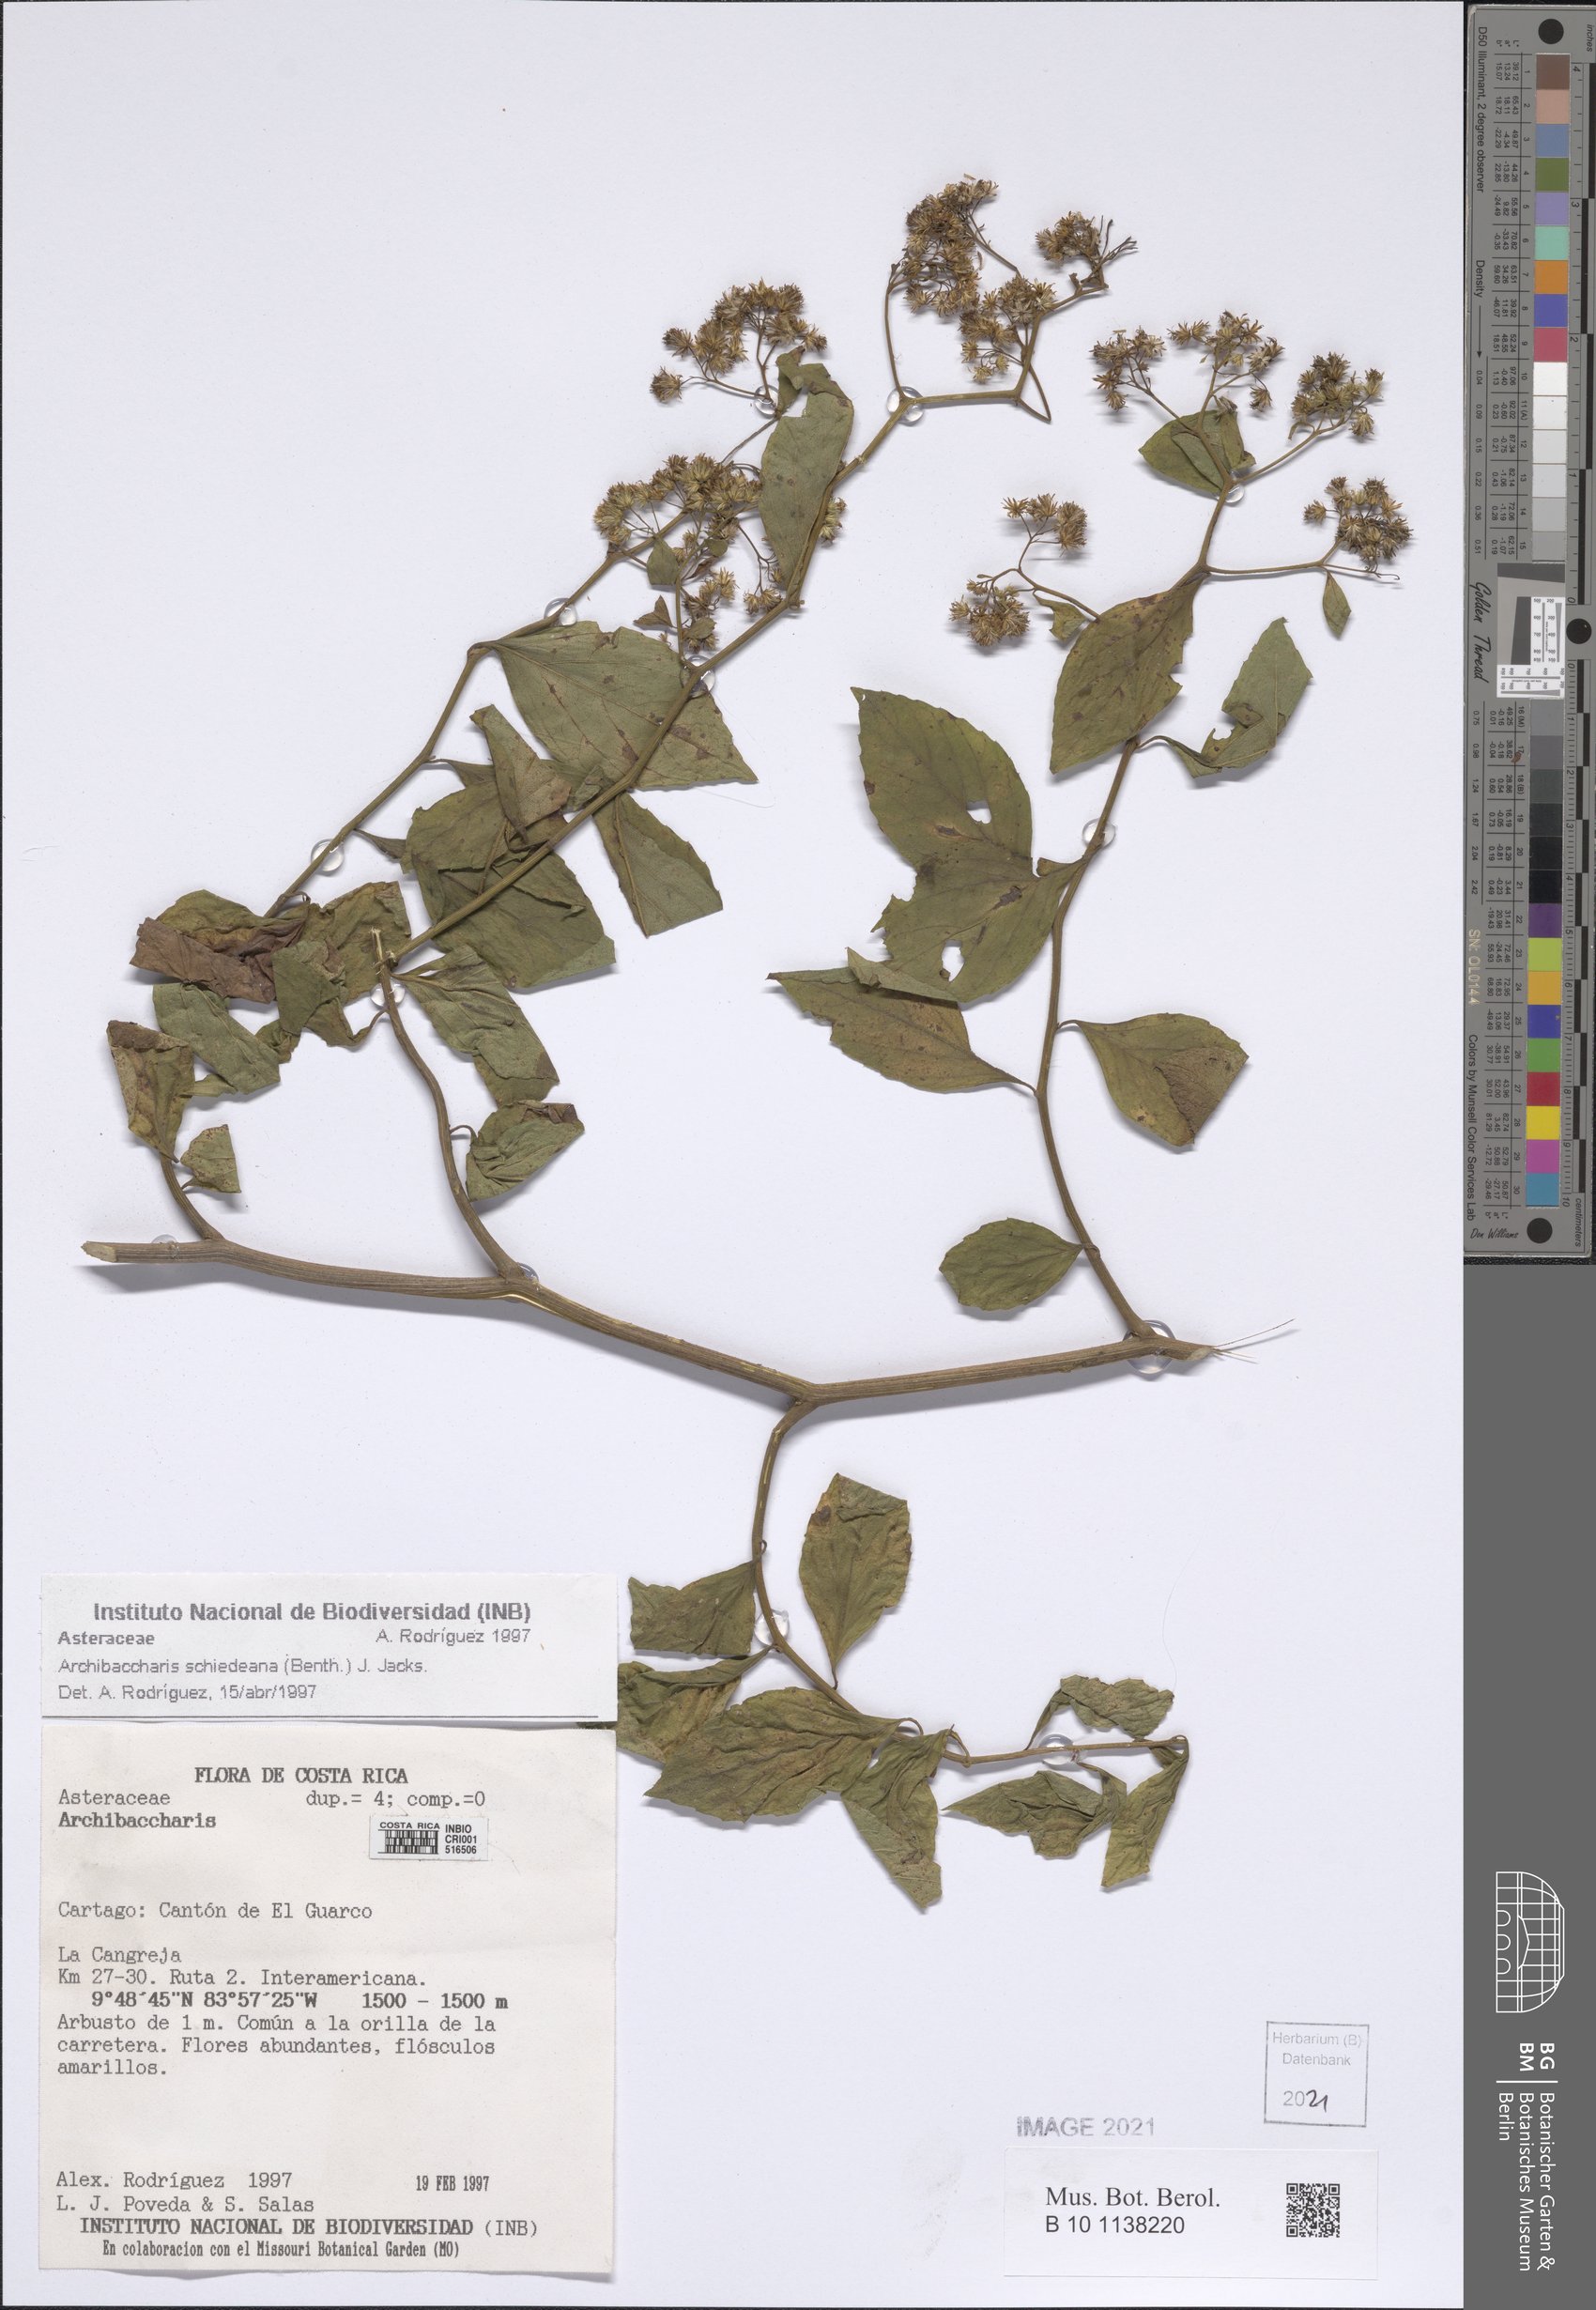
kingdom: Plantae
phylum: Tracheophyta
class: Magnoliopsida
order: Asterales
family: Asteraceae
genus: Archibaccharis
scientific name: Archibaccharis schiedeana
